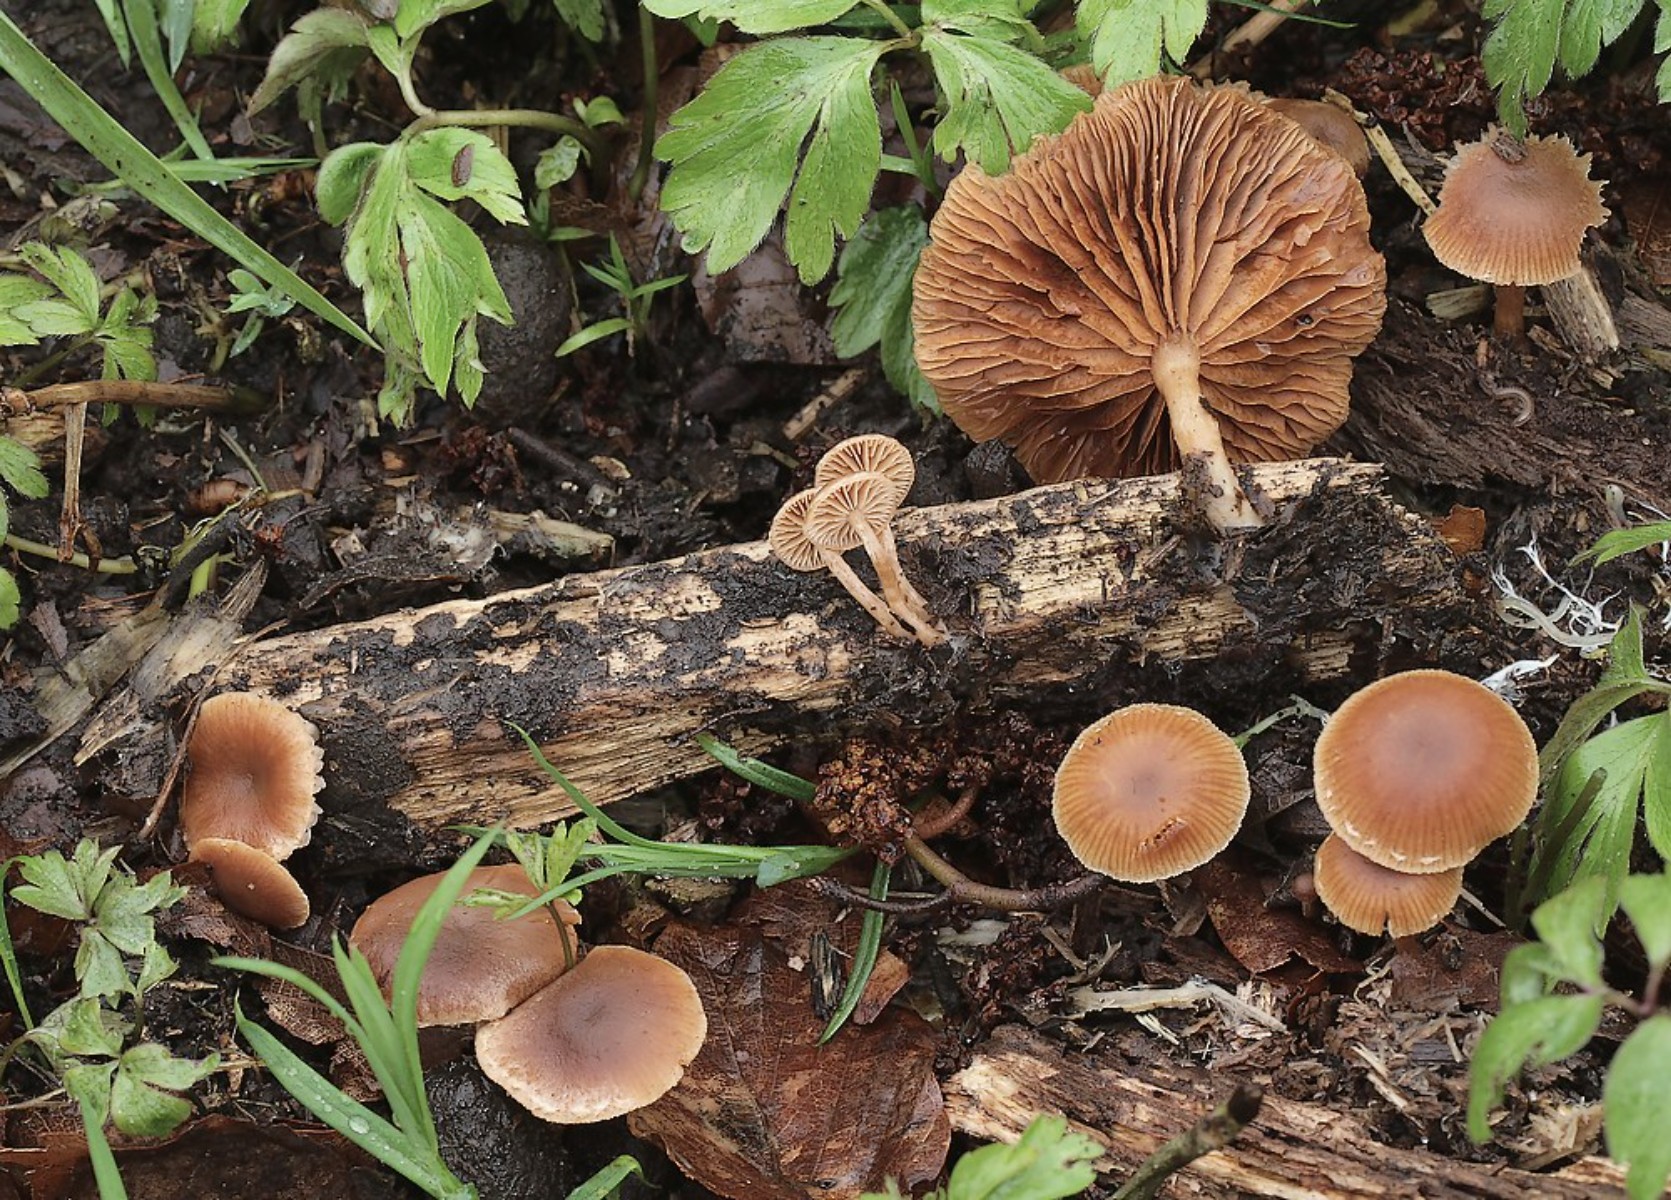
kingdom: Fungi
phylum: Basidiomycota
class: Agaricomycetes
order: Agaricales
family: Tubariaceae
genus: Tubaria
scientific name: Tubaria furfuracea
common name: kliddet fnughat
